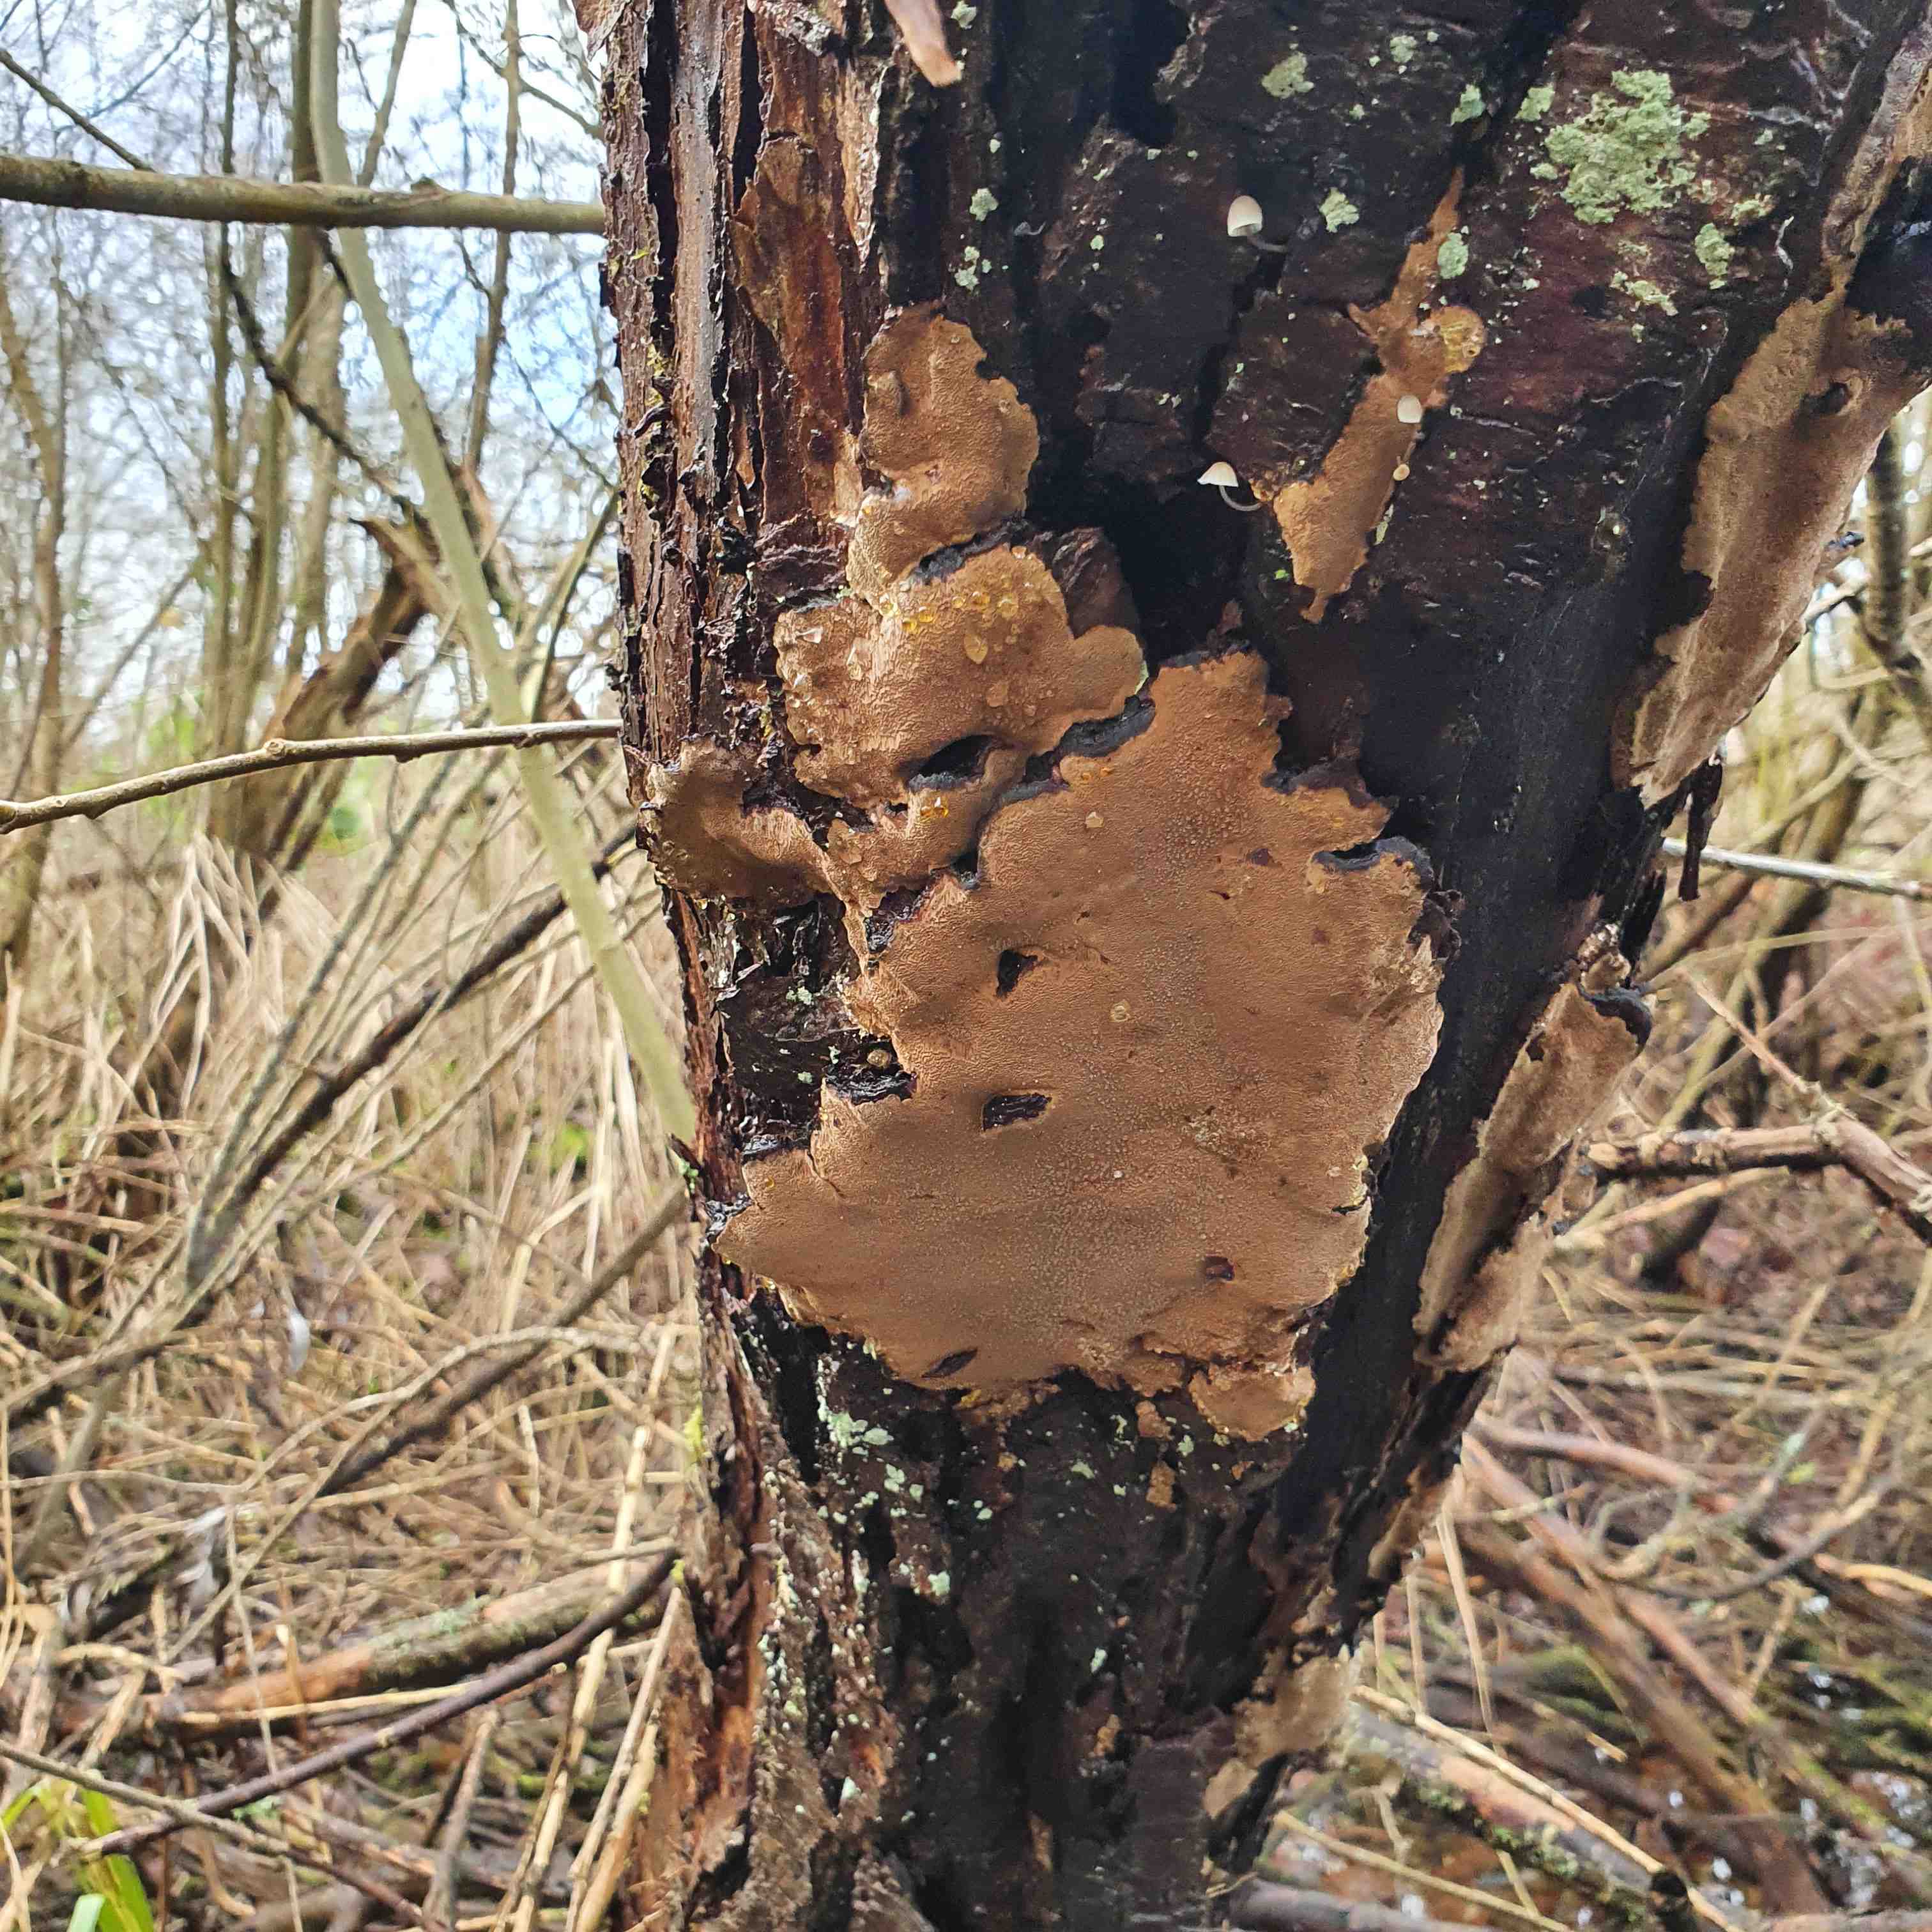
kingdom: Fungi
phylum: Basidiomycota
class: Agaricomycetes
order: Hymenochaetales
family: Hymenochaetaceae
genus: Phellinopsis
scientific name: Phellinopsis conchata
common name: pile-ildporesvamp
